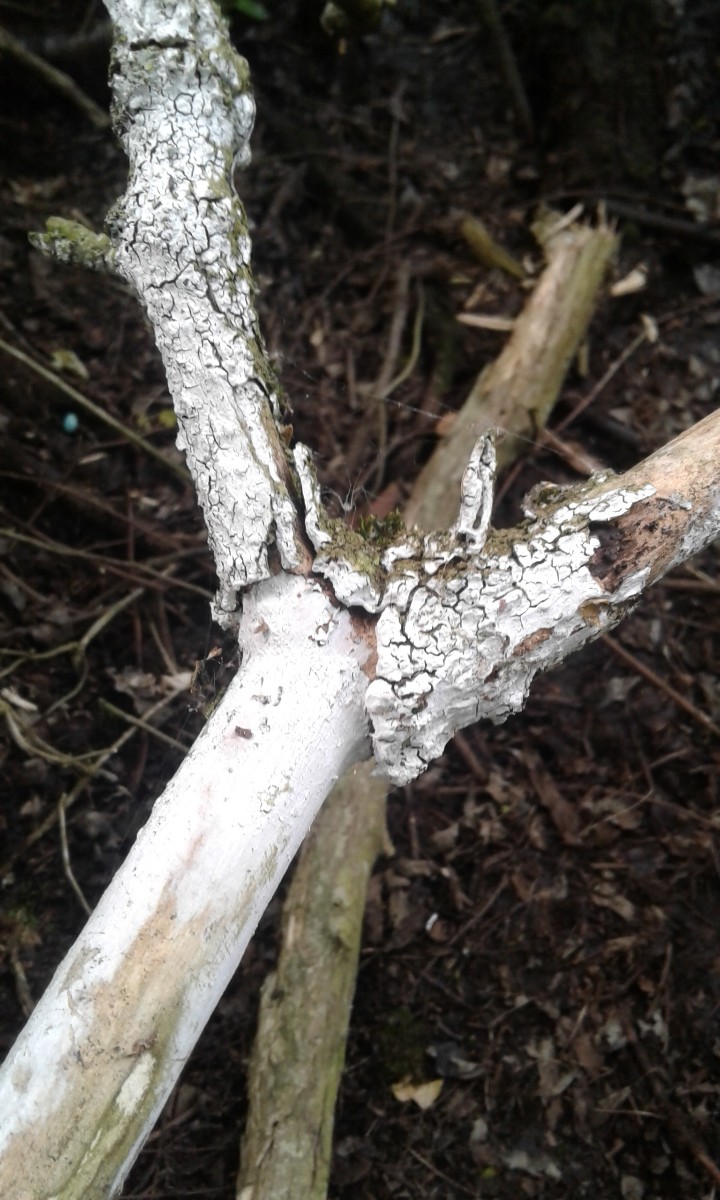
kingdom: Fungi
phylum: Basidiomycota
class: Agaricomycetes
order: Corticiales
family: Corticiaceae
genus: Lyomyces
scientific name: Lyomyces sambuci
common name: almindelig hyldehinde
